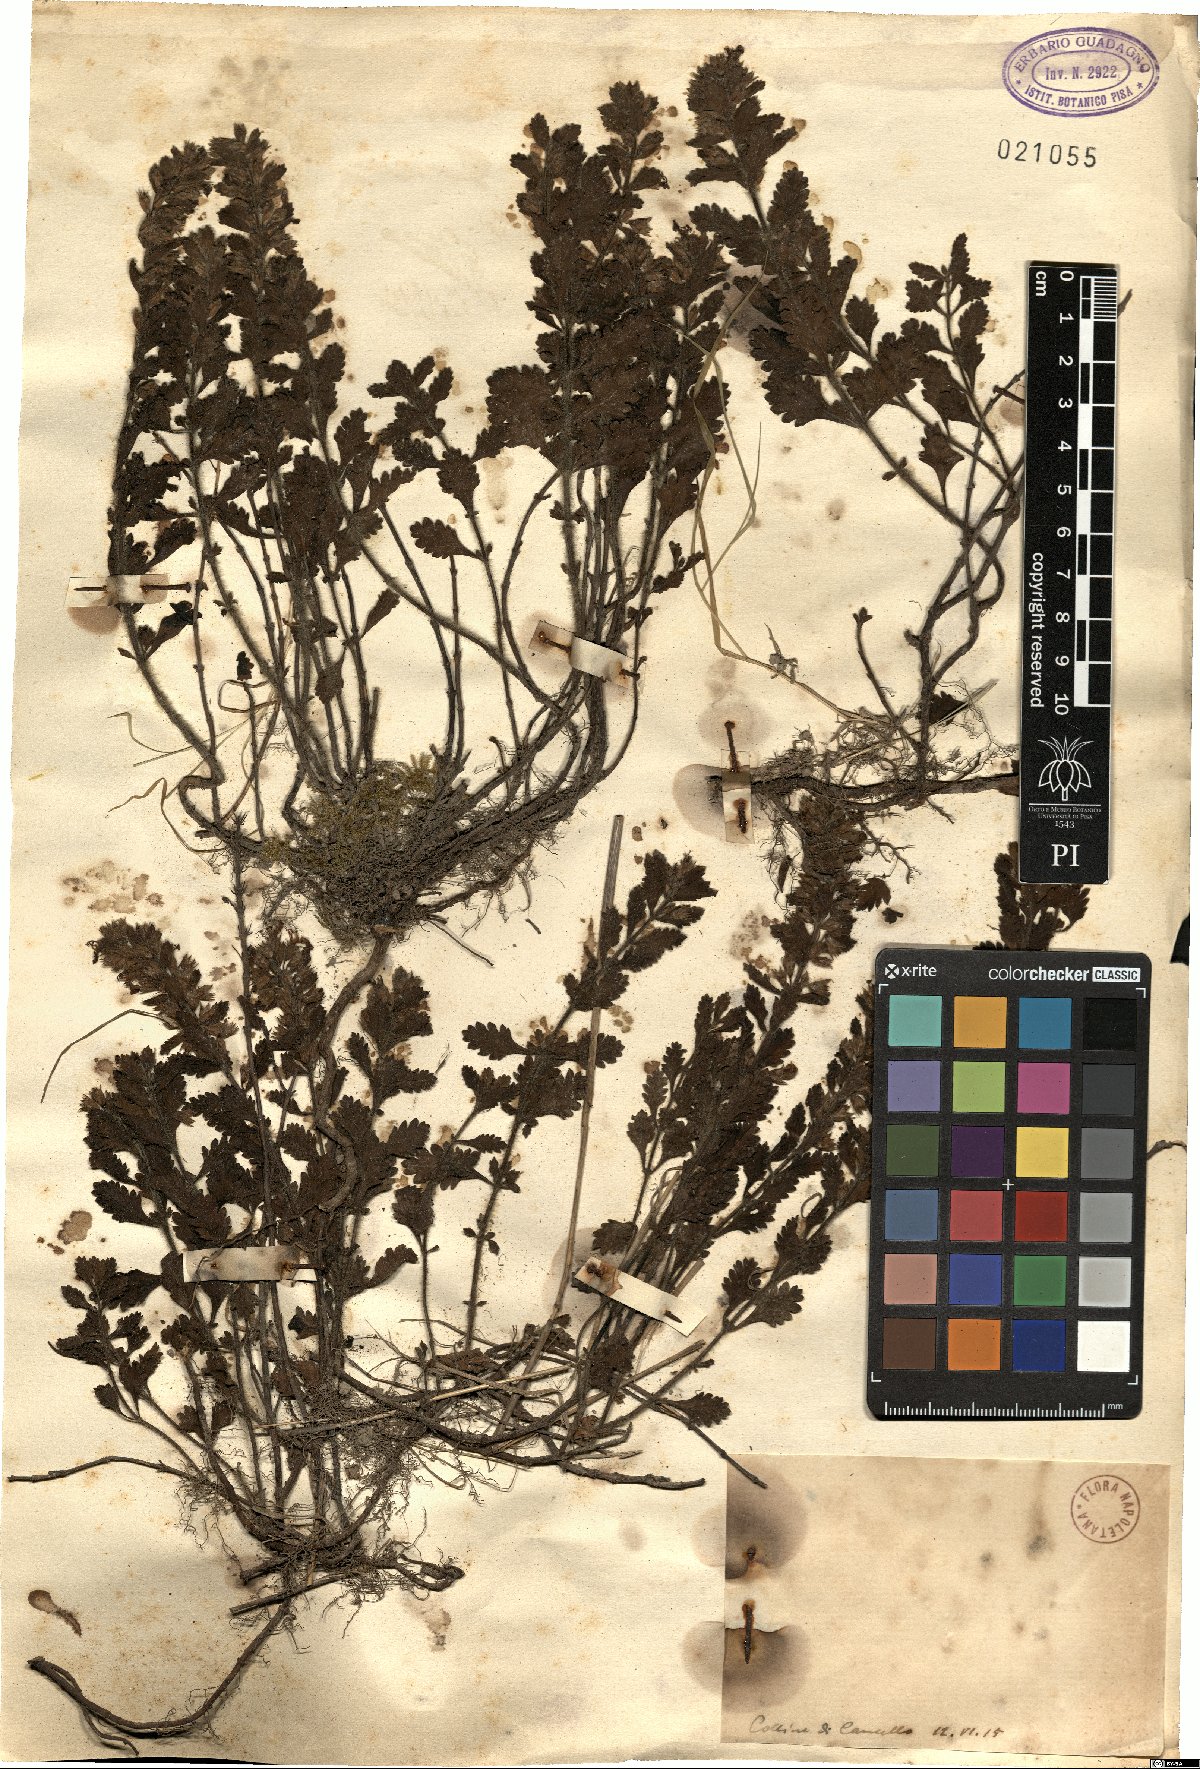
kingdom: Plantae
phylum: Tracheophyta
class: Magnoliopsida
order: Lamiales
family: Lamiaceae
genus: Teucrium
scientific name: Teucrium
